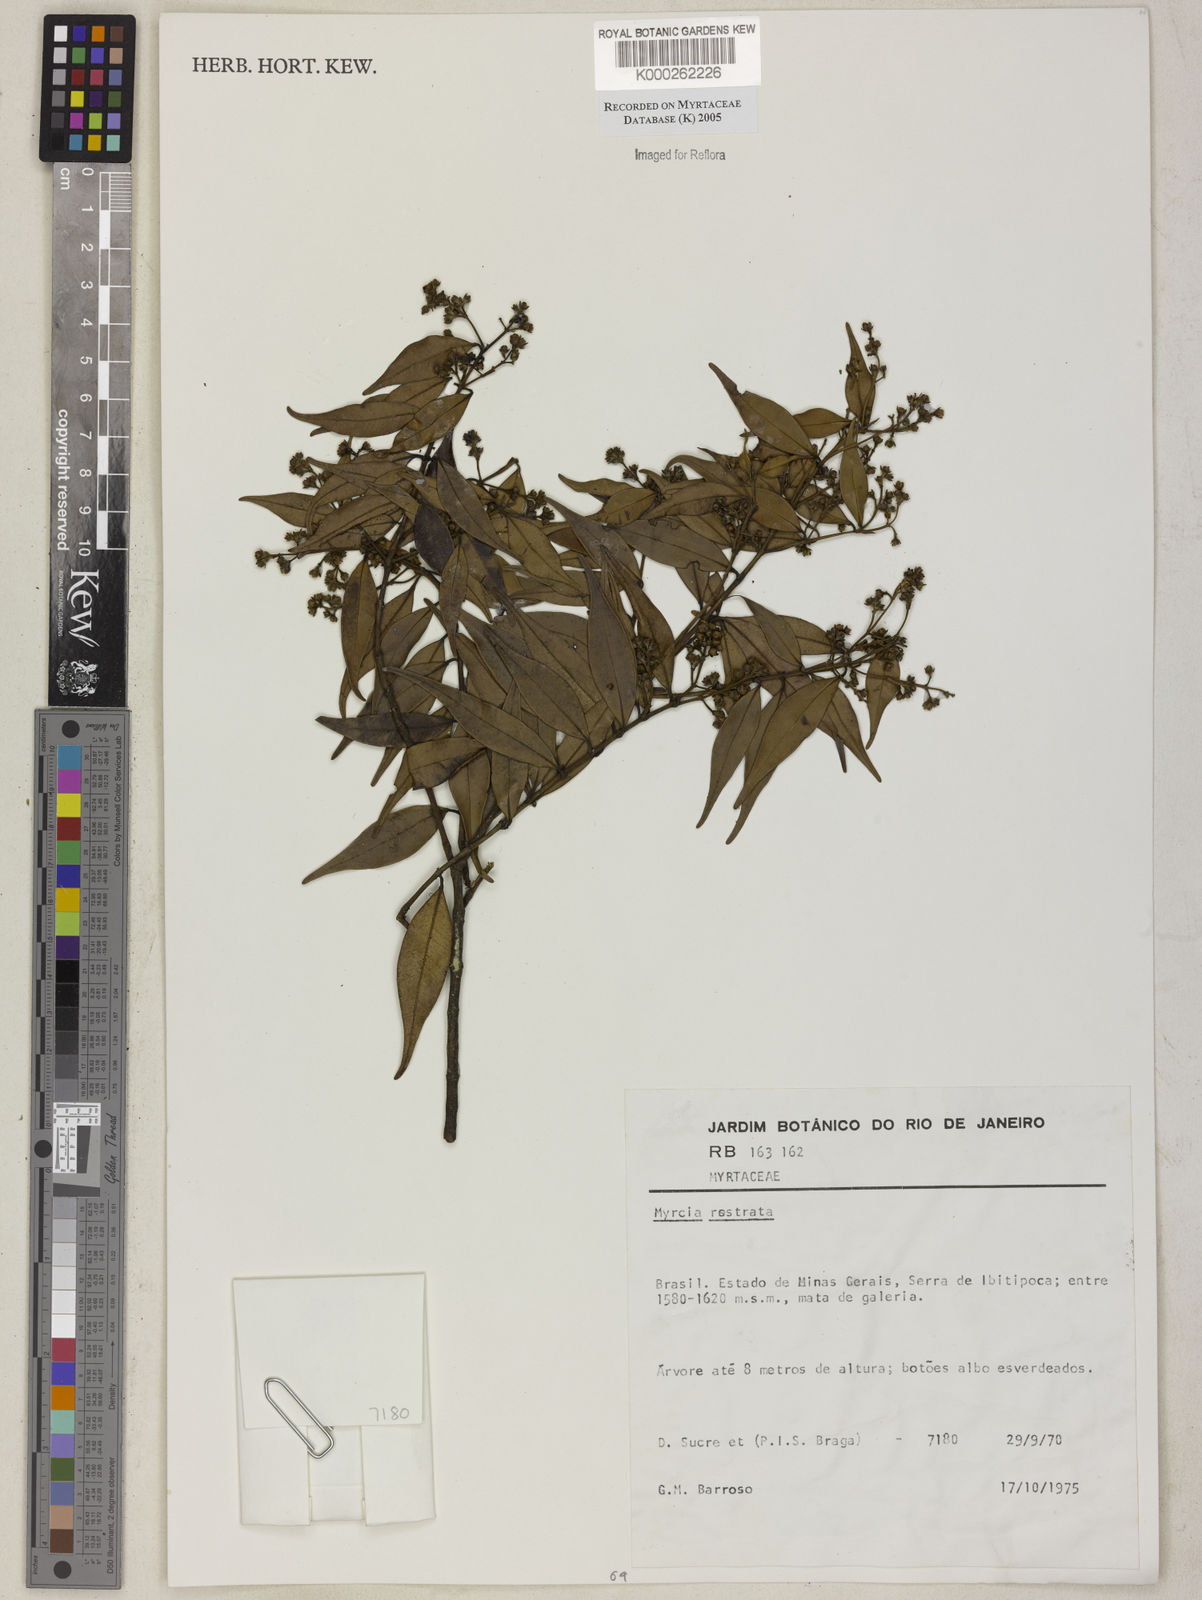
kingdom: Plantae
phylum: Tracheophyta
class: Magnoliopsida
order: Myrtales
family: Myrtaceae
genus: Myrcia
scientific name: Myrcia splendens
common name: Surinam cherry
